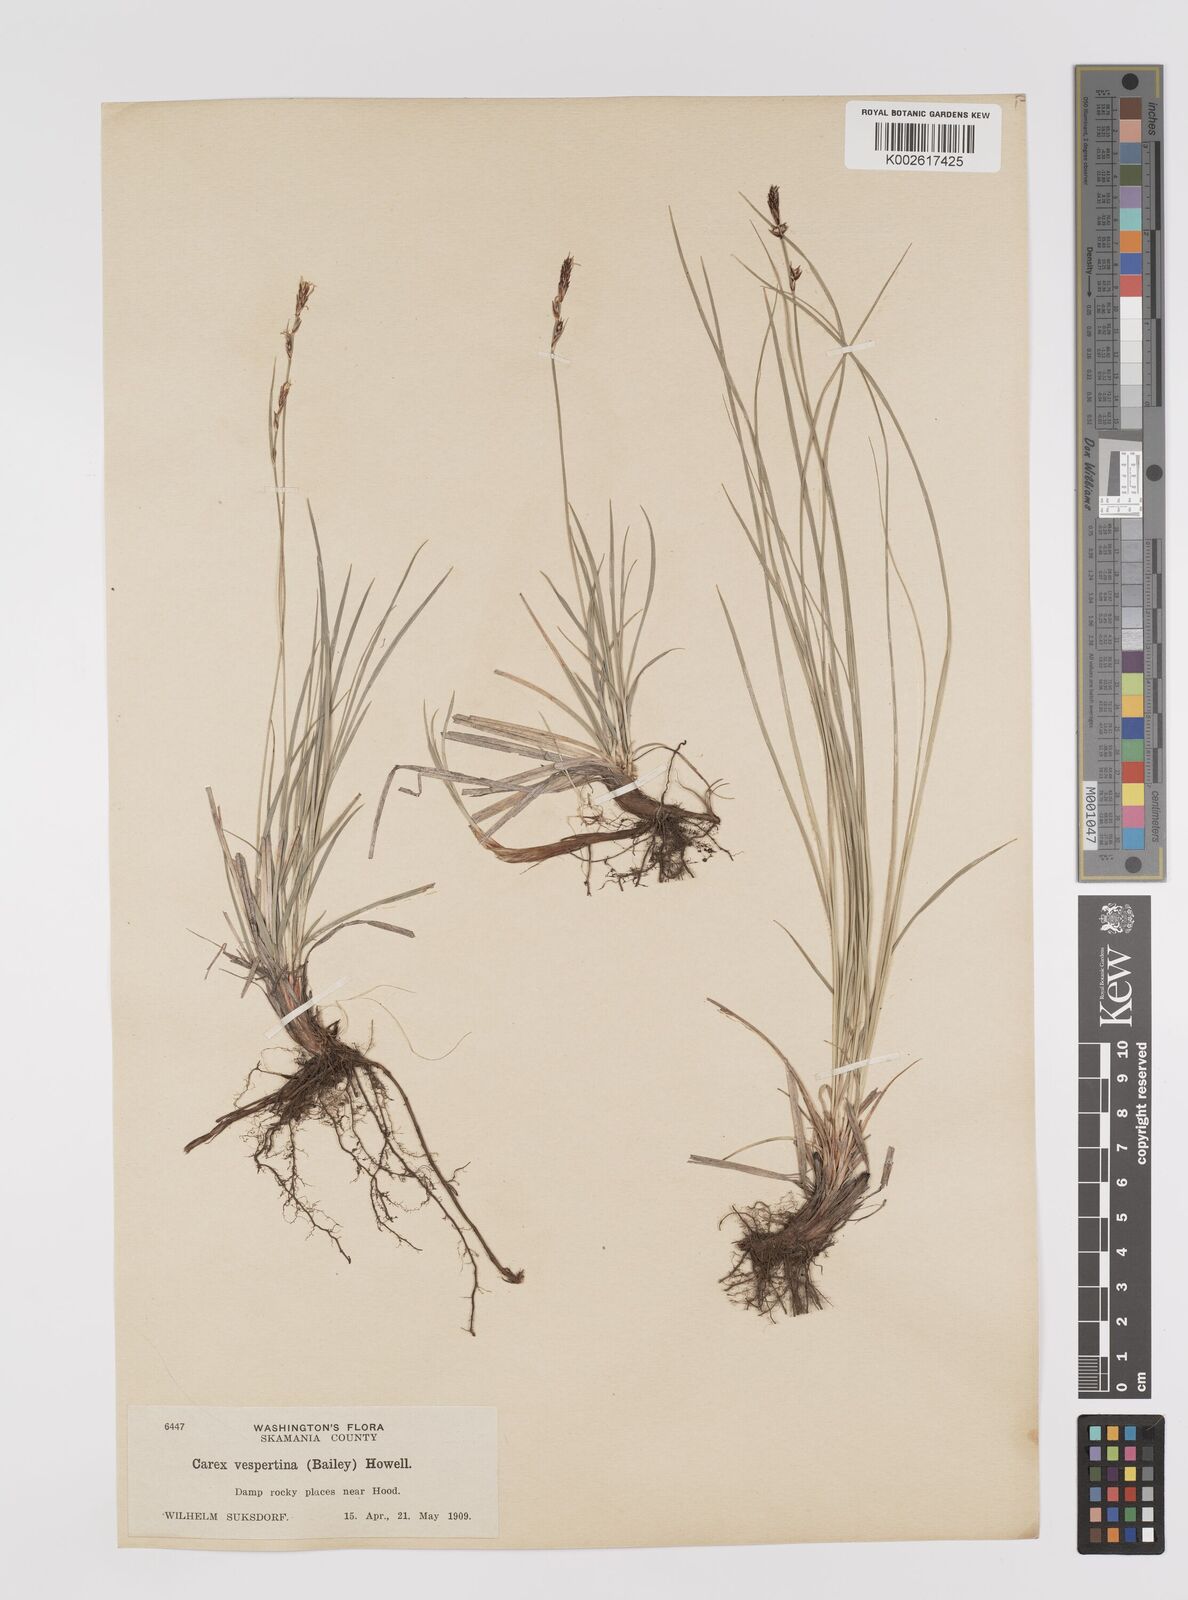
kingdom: Plantae
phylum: Tracheophyta
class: Liliopsida
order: Poales
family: Cyperaceae
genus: Carex
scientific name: Carex inops
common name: Long-stolon sedge
